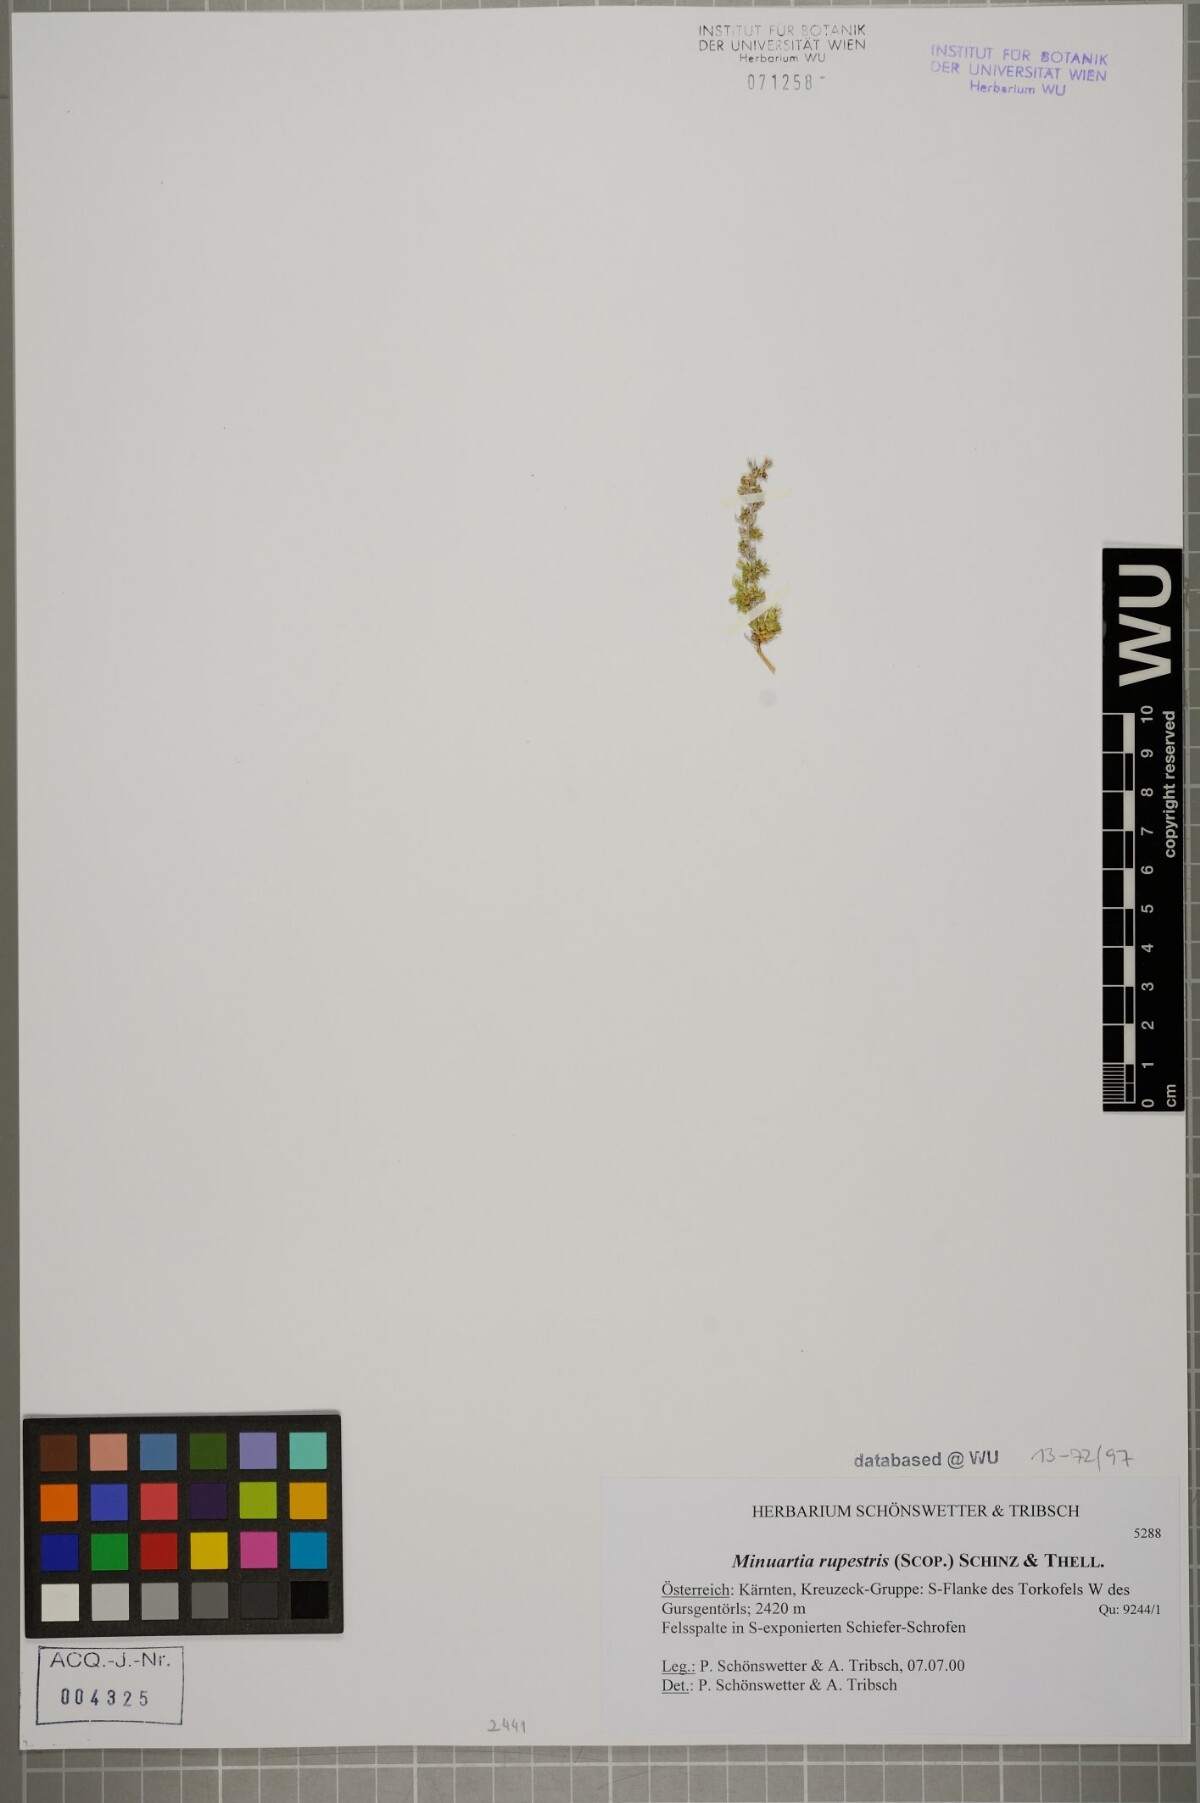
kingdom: Plantae
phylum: Tracheophyta
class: Magnoliopsida
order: Caryophyllales
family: Caryophyllaceae
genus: Facchinia
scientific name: Facchinia rupestris
